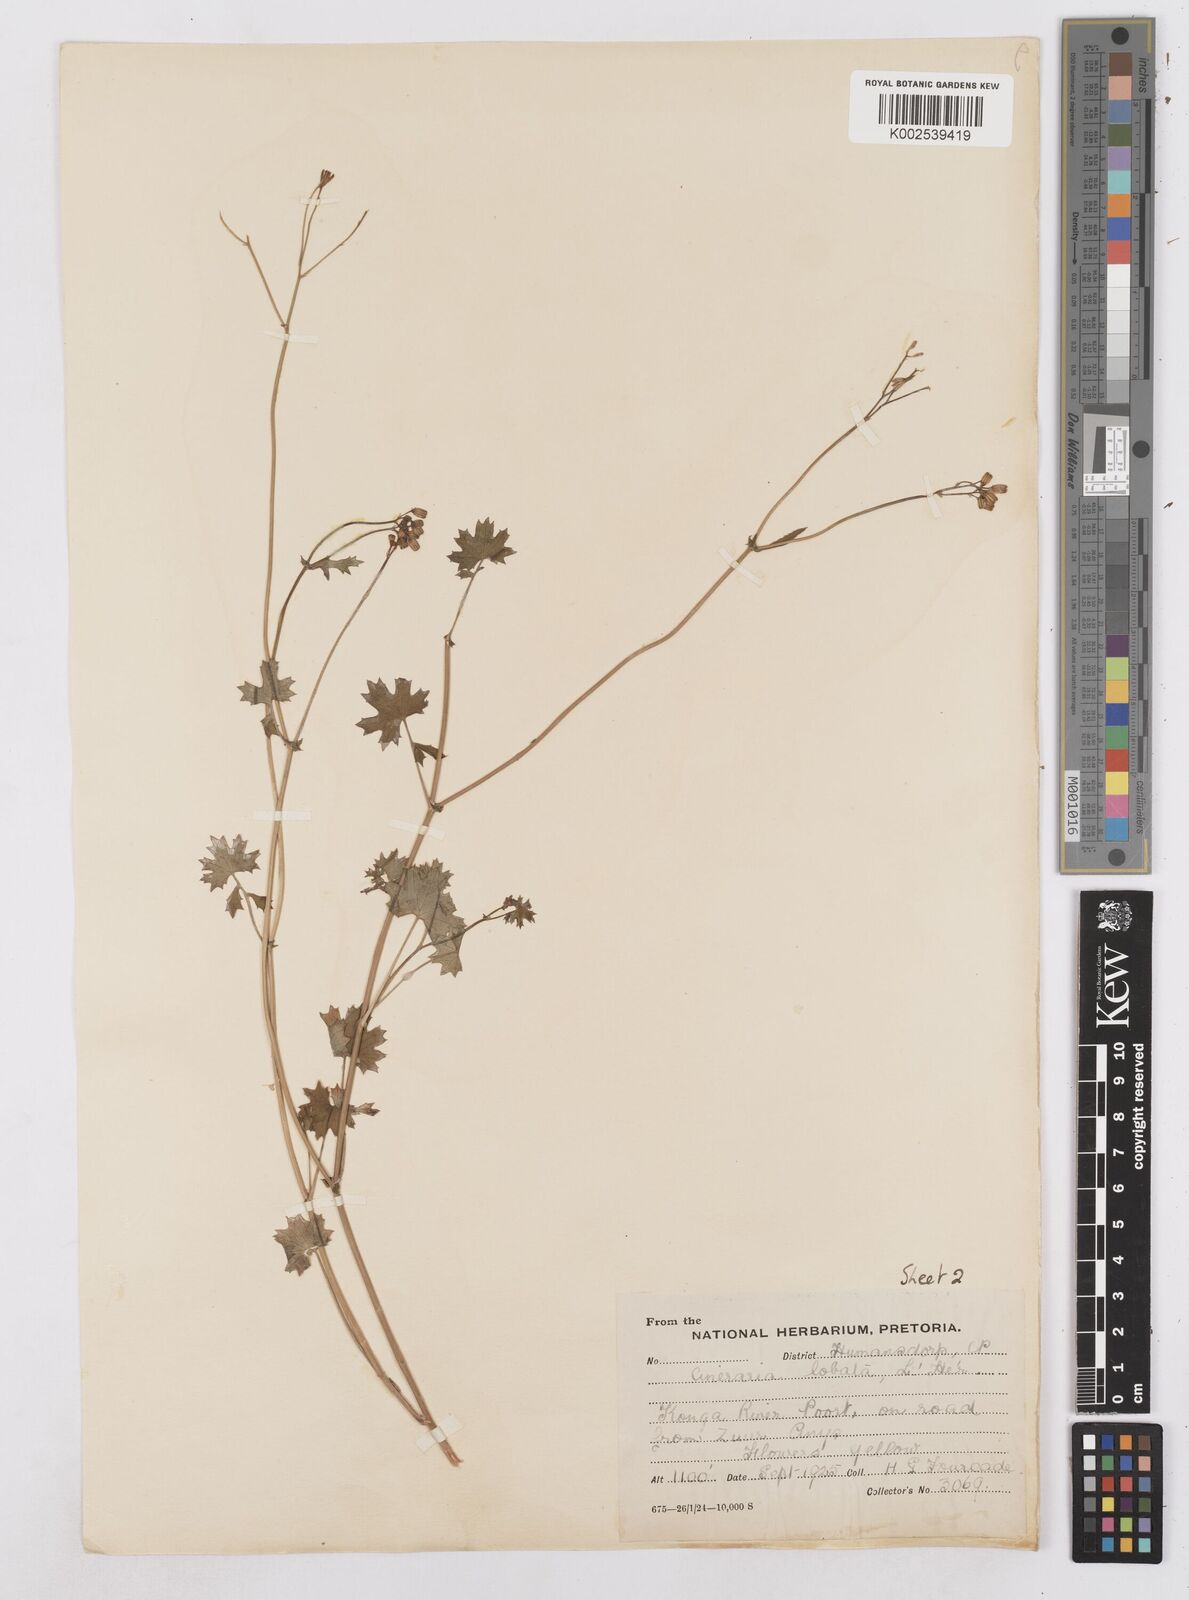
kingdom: Plantae
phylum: Tracheophyta
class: Magnoliopsida
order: Asterales
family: Asteraceae
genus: Cineraria
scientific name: Cineraria
